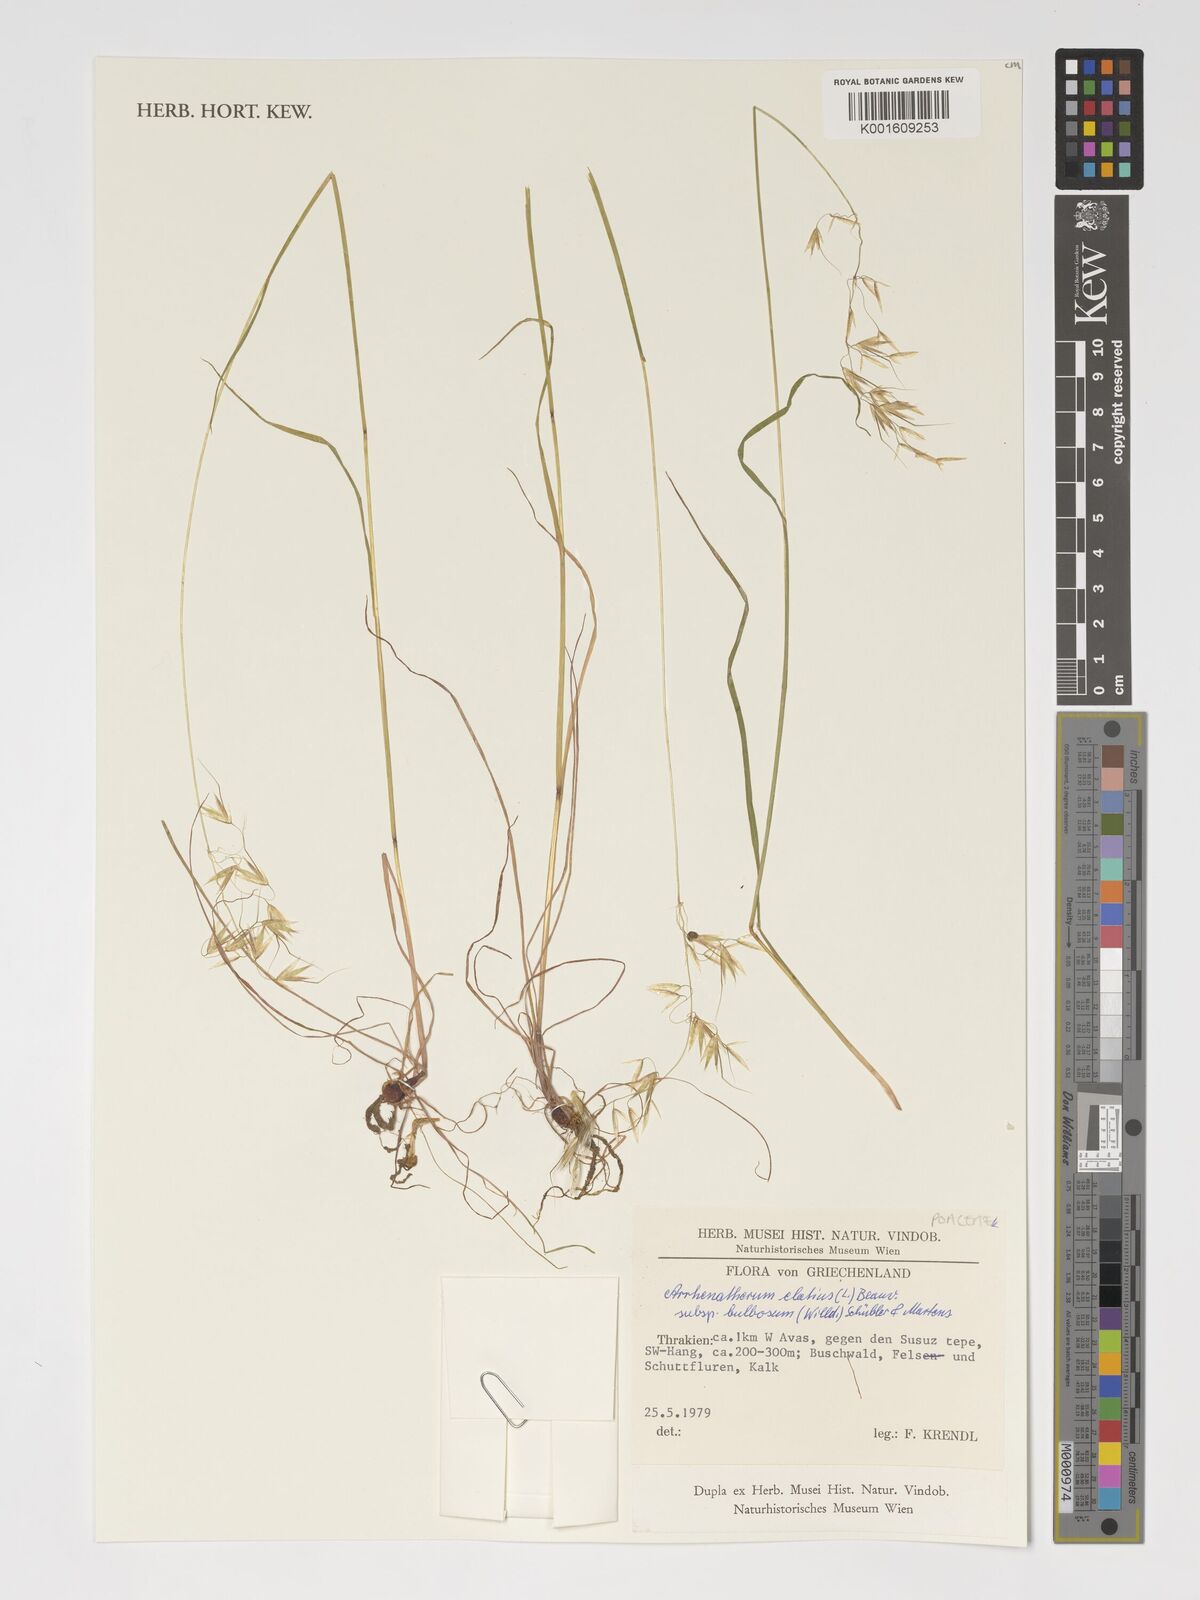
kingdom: Plantae
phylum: Tracheophyta
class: Liliopsida
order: Poales
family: Poaceae
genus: Arrhenatherum
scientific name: Arrhenatherum elatius
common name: Tall oatgrass
